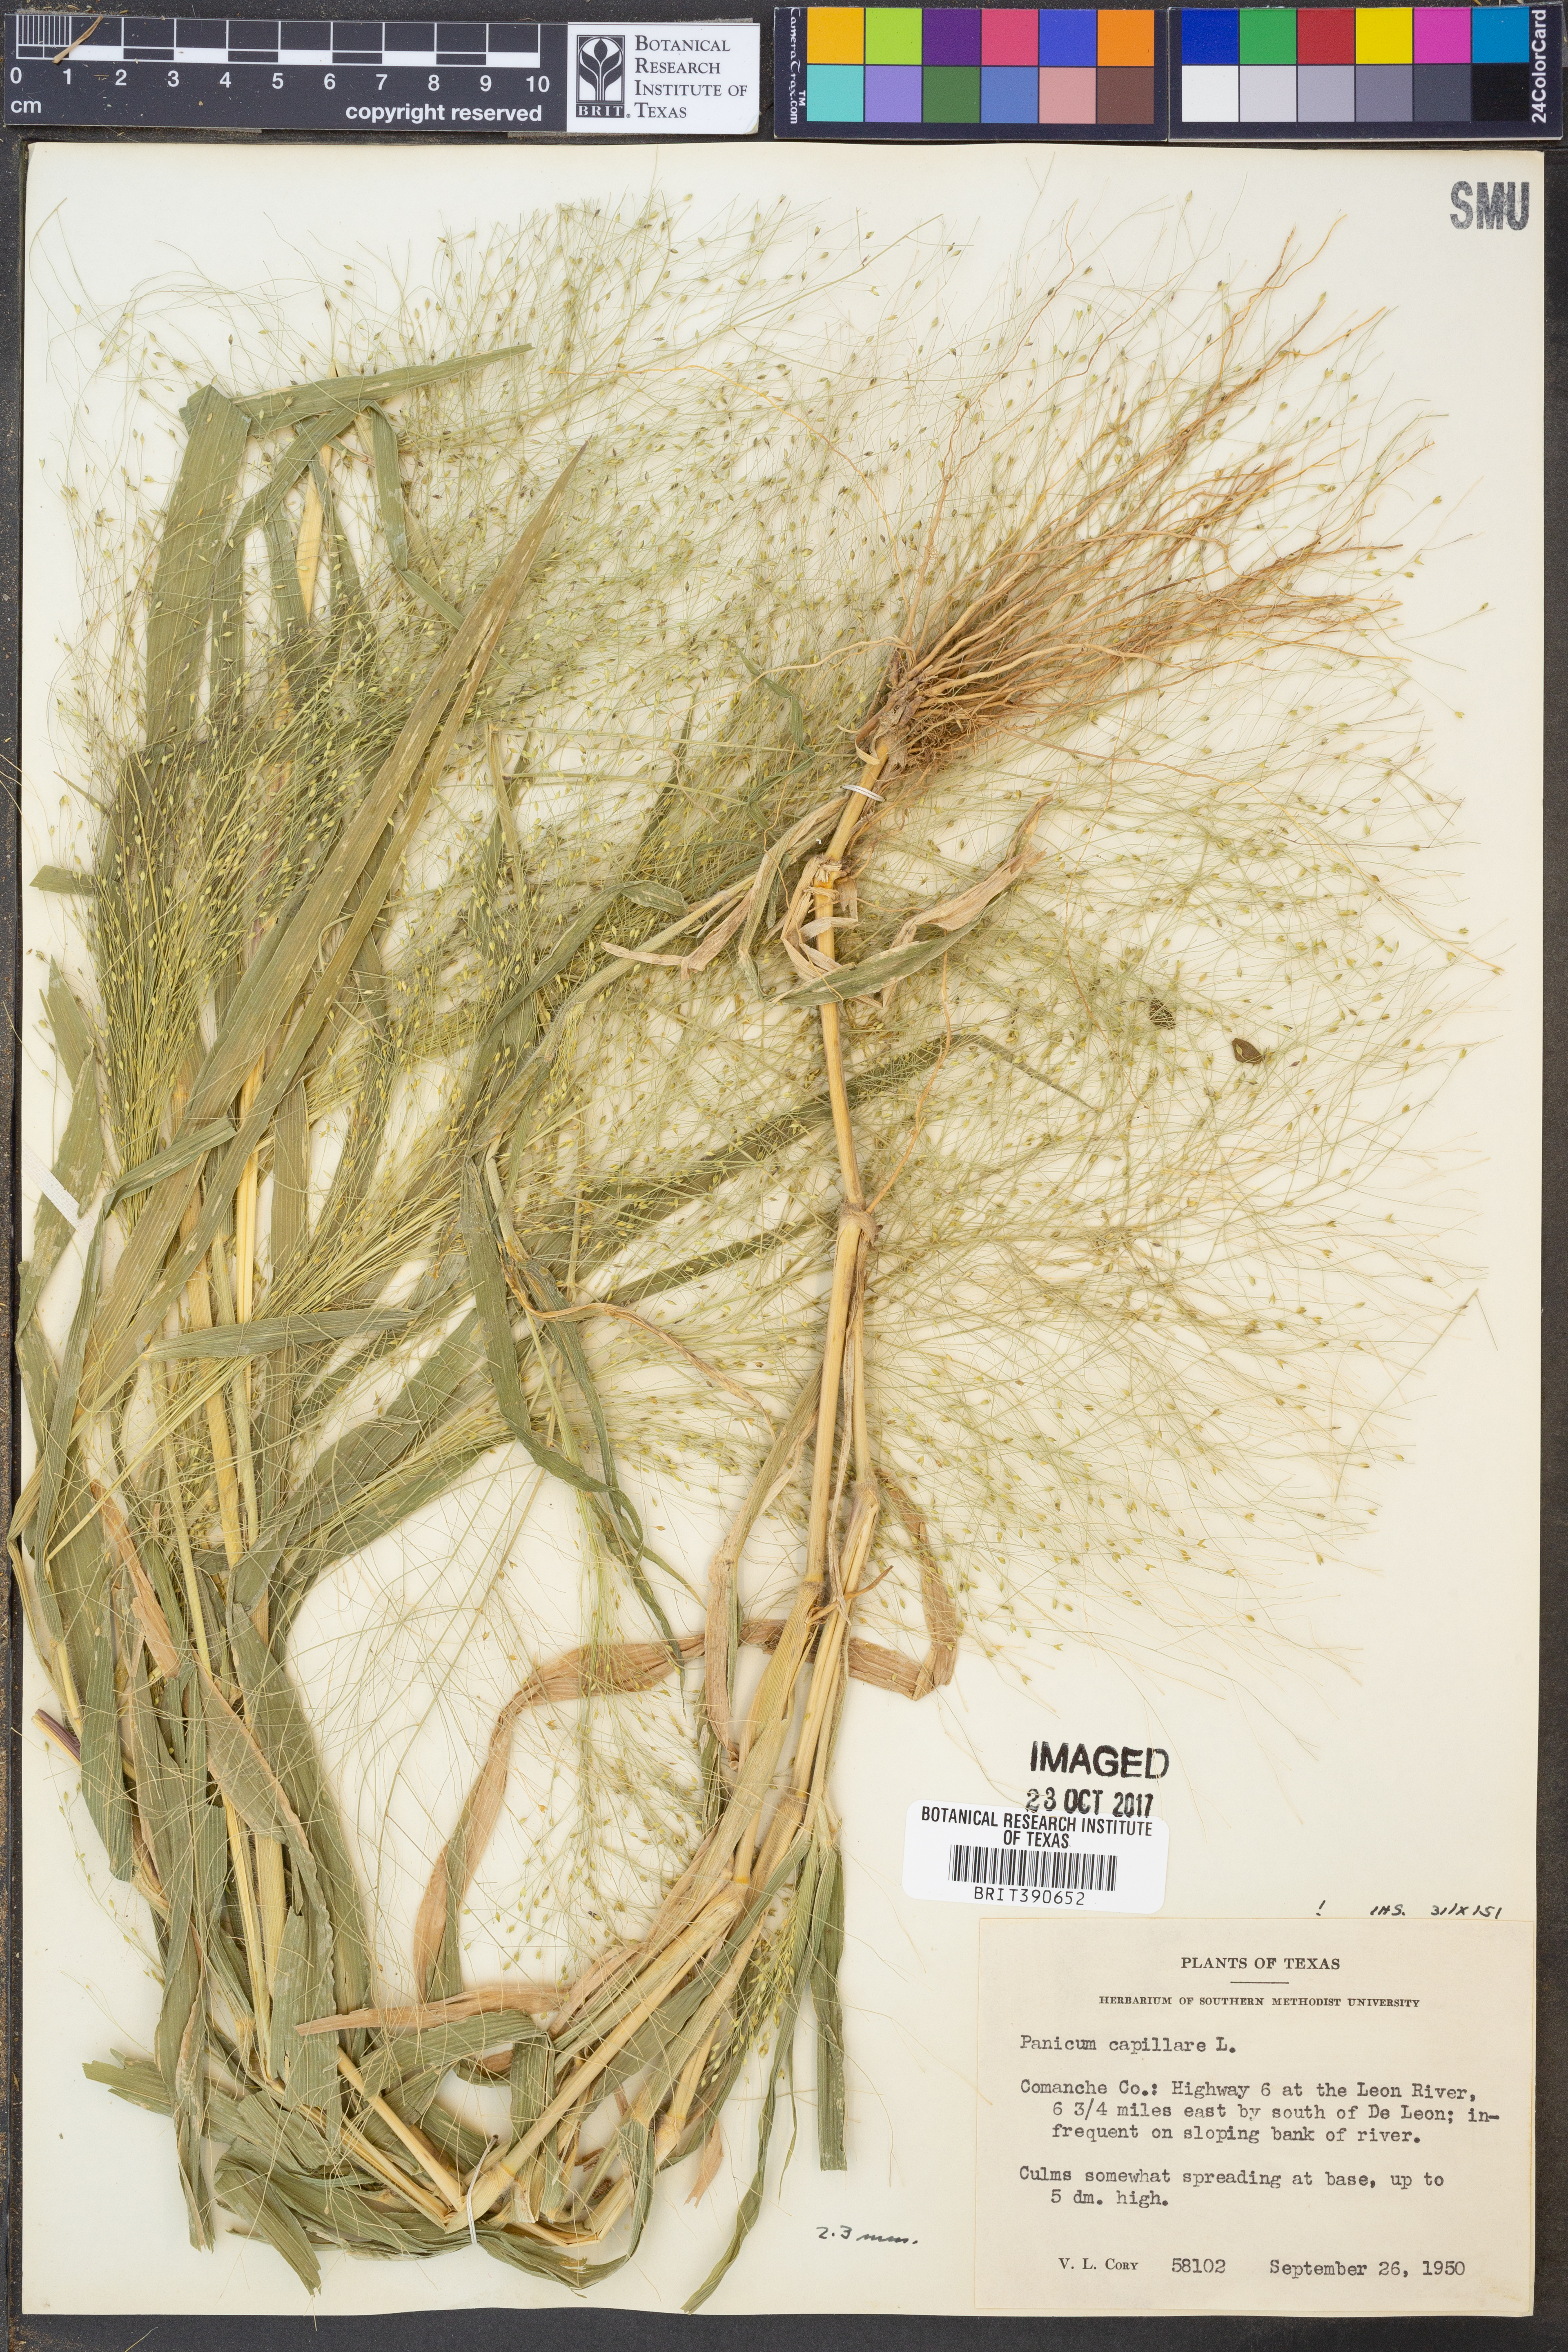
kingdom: Plantae
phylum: Tracheophyta
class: Liliopsida
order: Poales
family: Poaceae
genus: Panicum
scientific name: Panicum capillare
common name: Witch-grass
